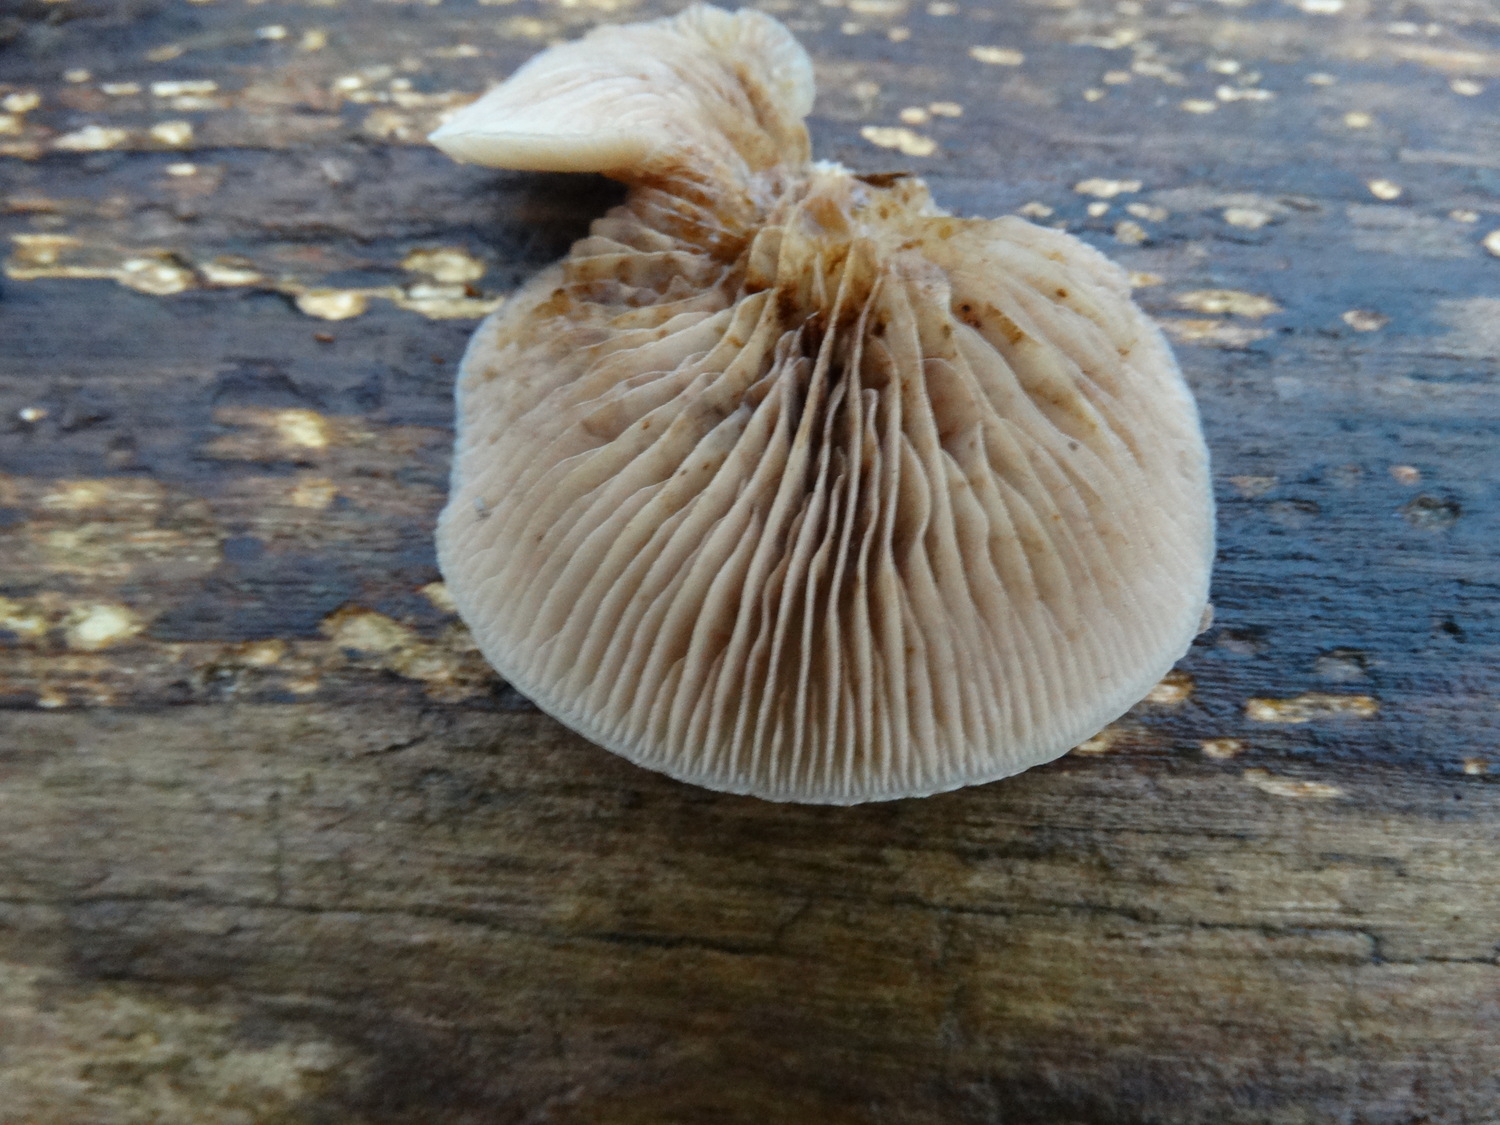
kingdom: Fungi
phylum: Basidiomycota
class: Agaricomycetes
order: Agaricales
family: Crepidotaceae
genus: Crepidotus
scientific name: Crepidotus mollis
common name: blød muslingesvamp
